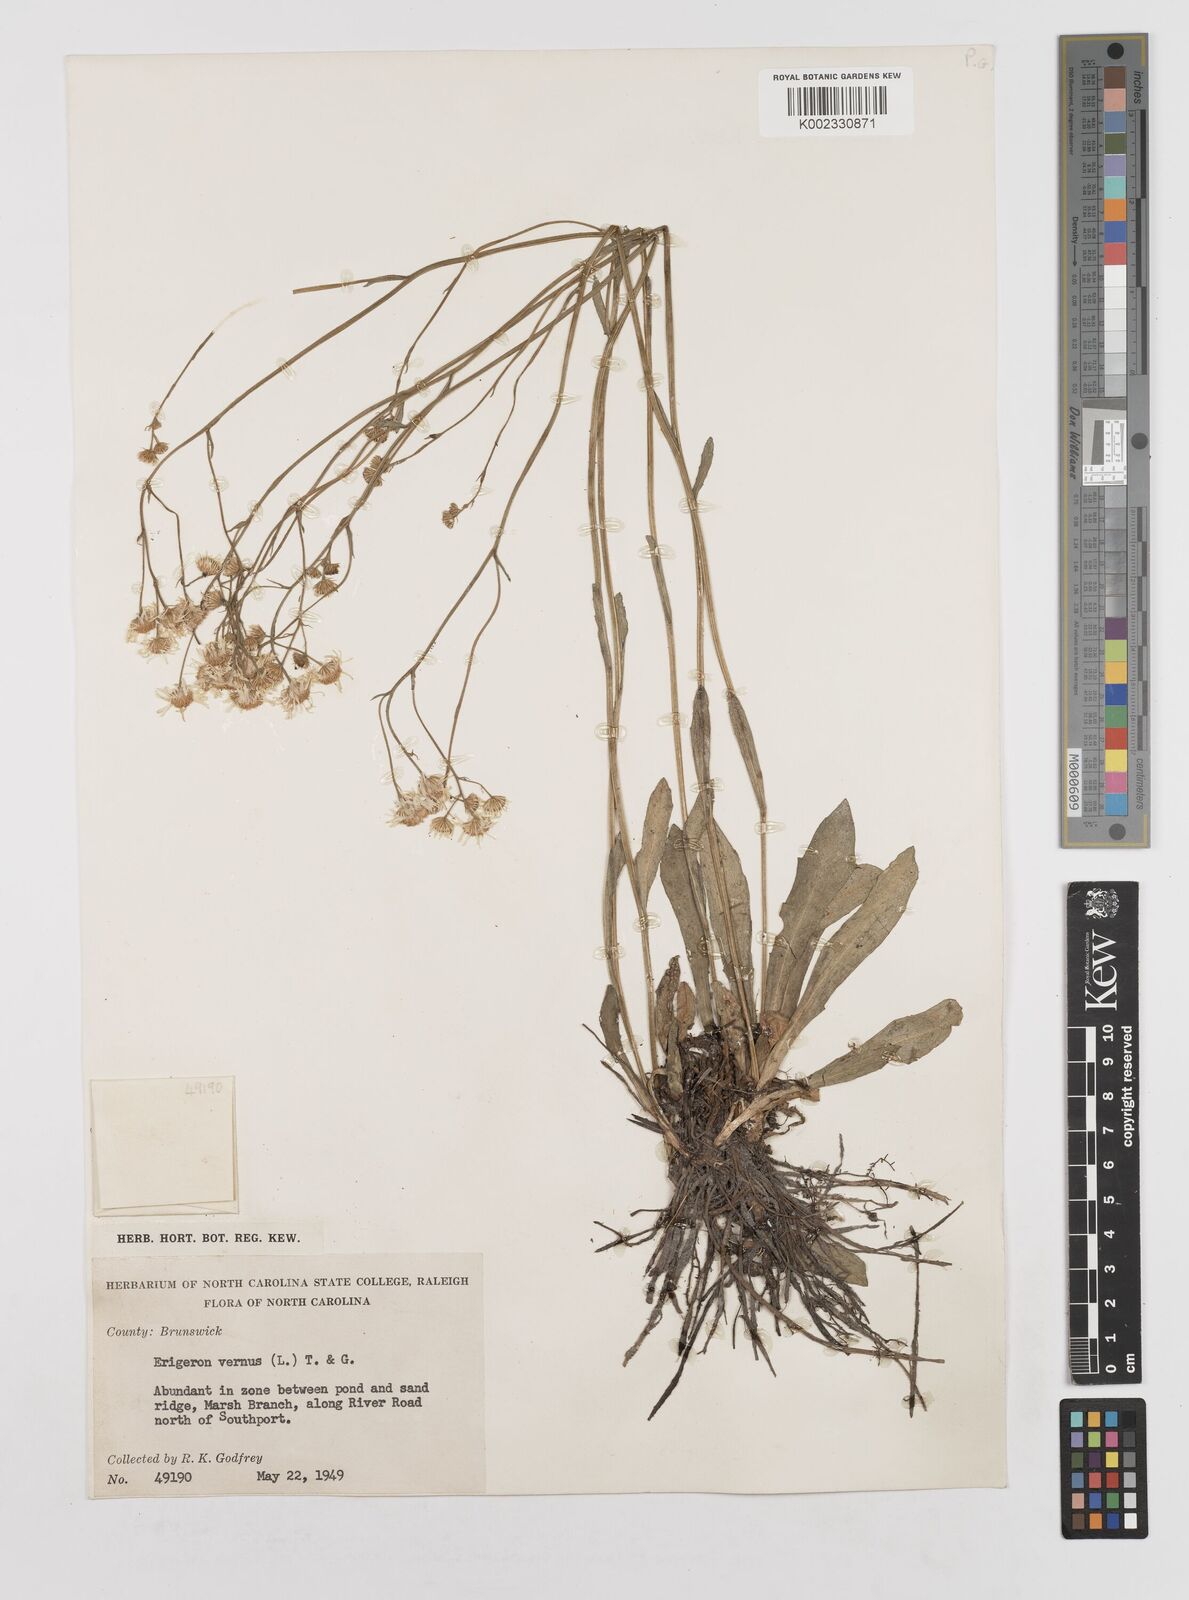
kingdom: Plantae
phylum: Tracheophyta
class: Magnoliopsida
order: Asterales
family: Asteraceae
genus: Erigeron
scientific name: Erigeron vernus
